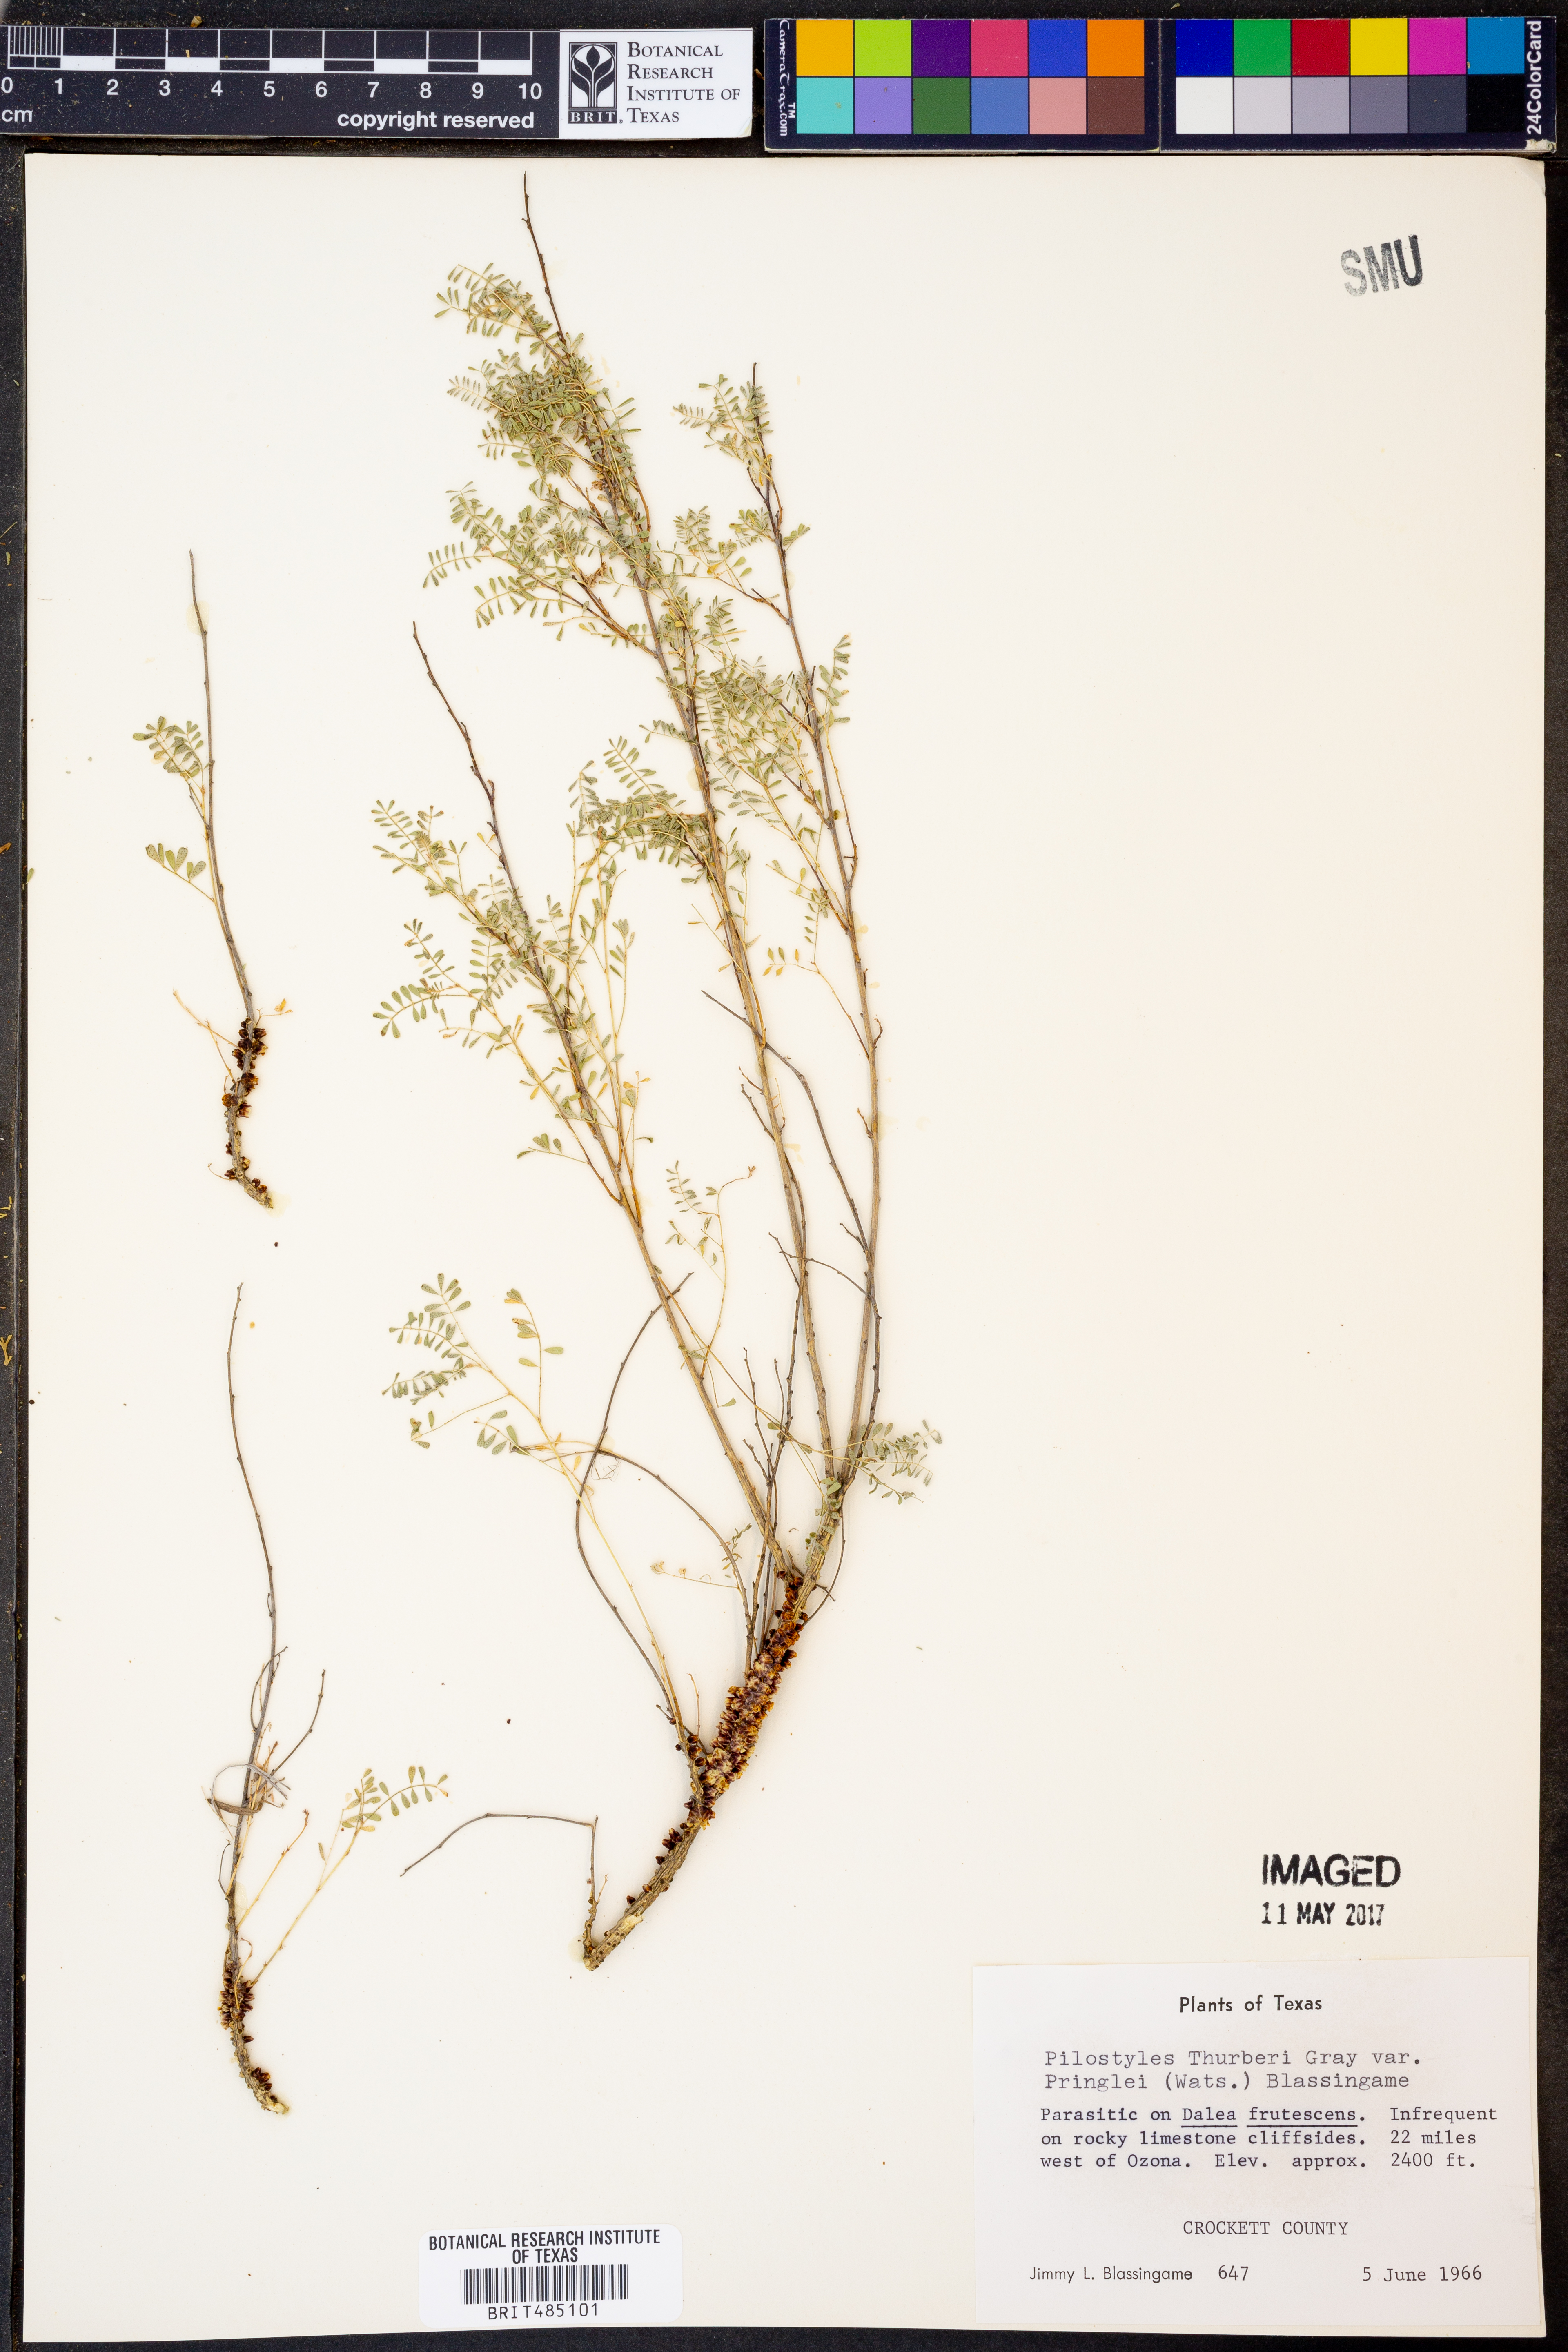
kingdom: Plantae
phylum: Tracheophyta
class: Magnoliopsida
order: Cucurbitales
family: Apodanthaceae
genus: Pilostyles
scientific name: Pilostyles thurberi
